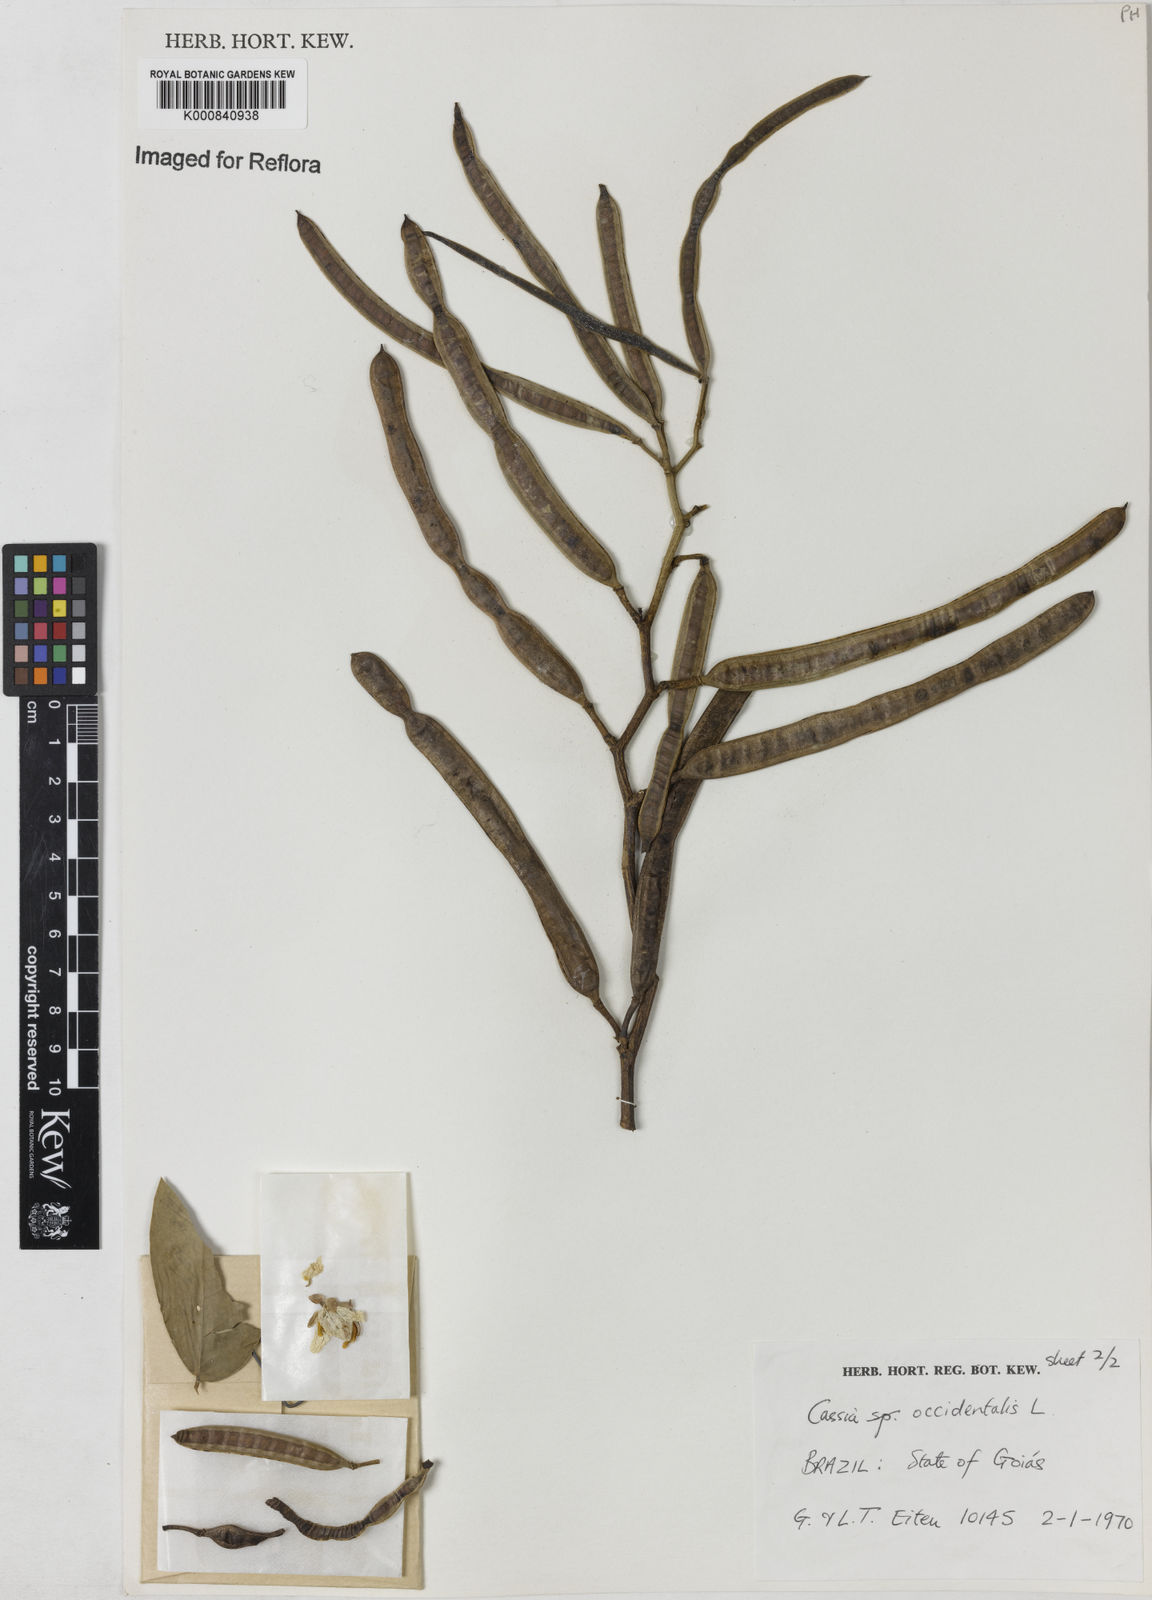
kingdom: Plantae
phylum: Tracheophyta
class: Magnoliopsida
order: Fabales
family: Fabaceae
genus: Senna
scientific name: Senna occidentalis
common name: Septicweed
